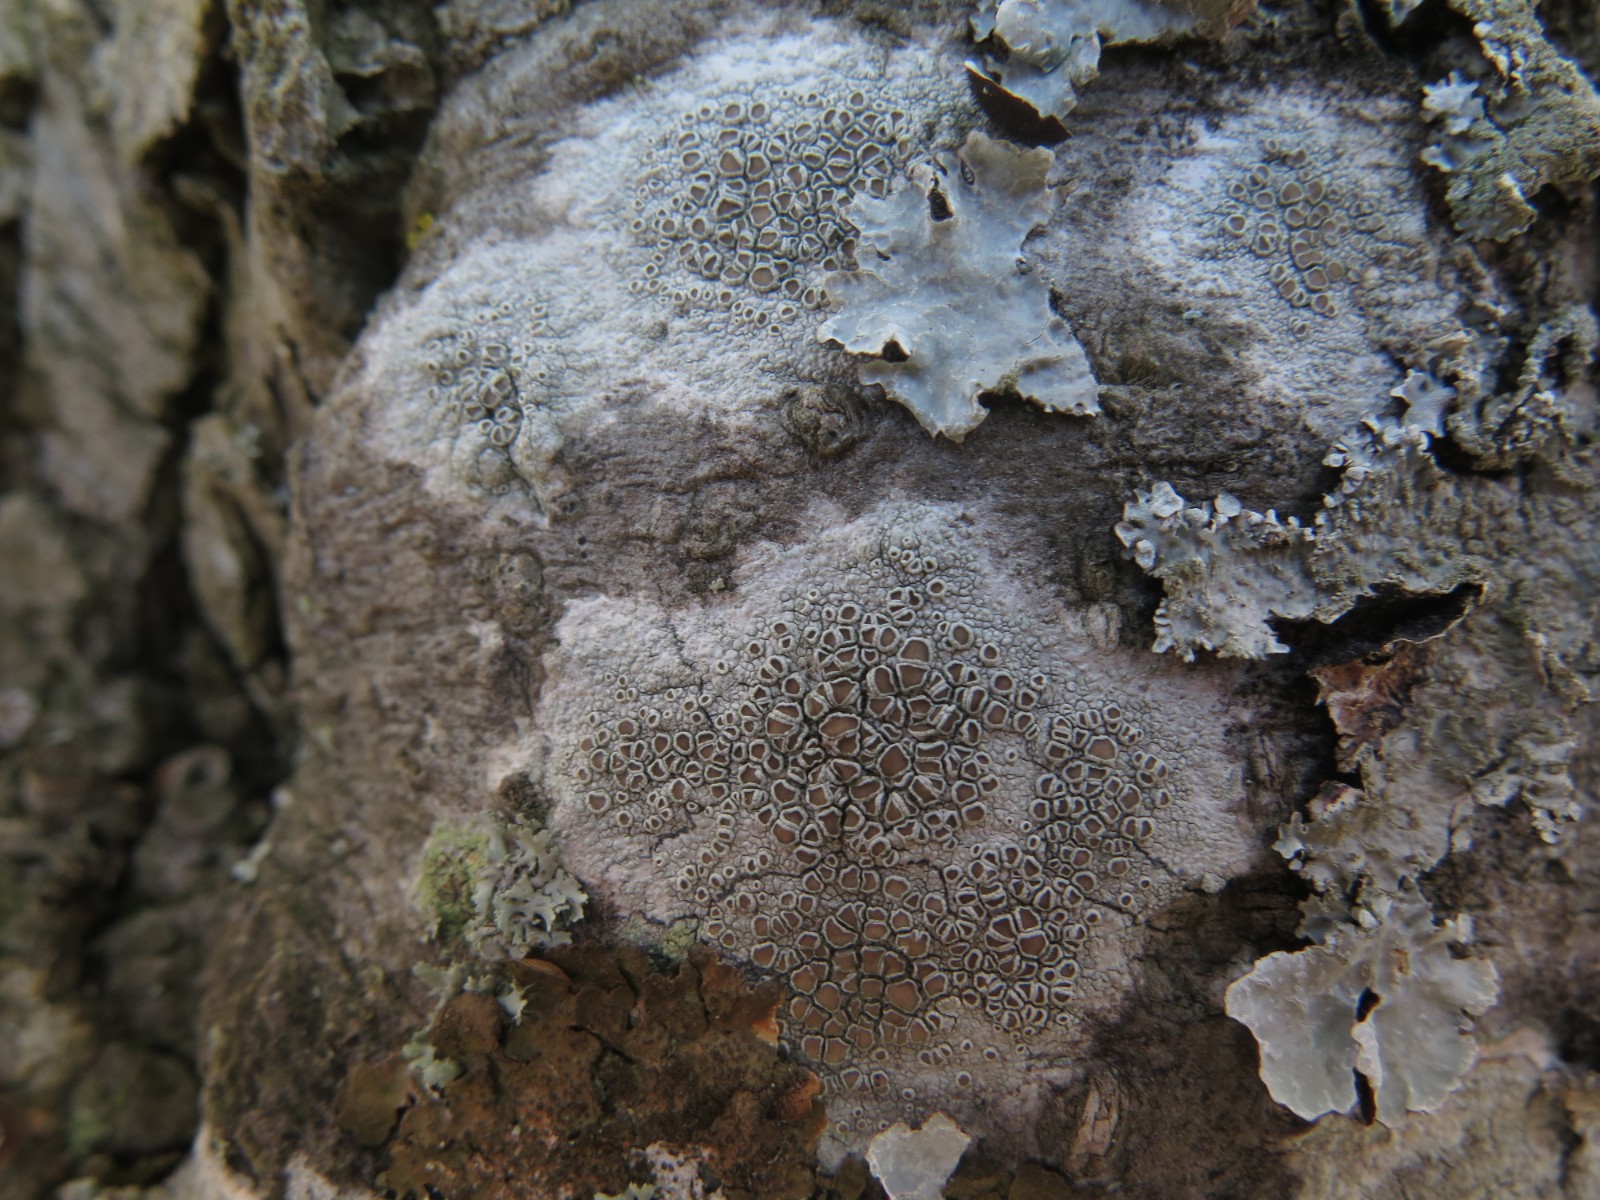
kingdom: Fungi
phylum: Ascomycota
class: Lecanoromycetes
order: Lecanorales
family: Lecanoraceae
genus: Lecanora
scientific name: Lecanora chlarotera
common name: brun kantskivelav
